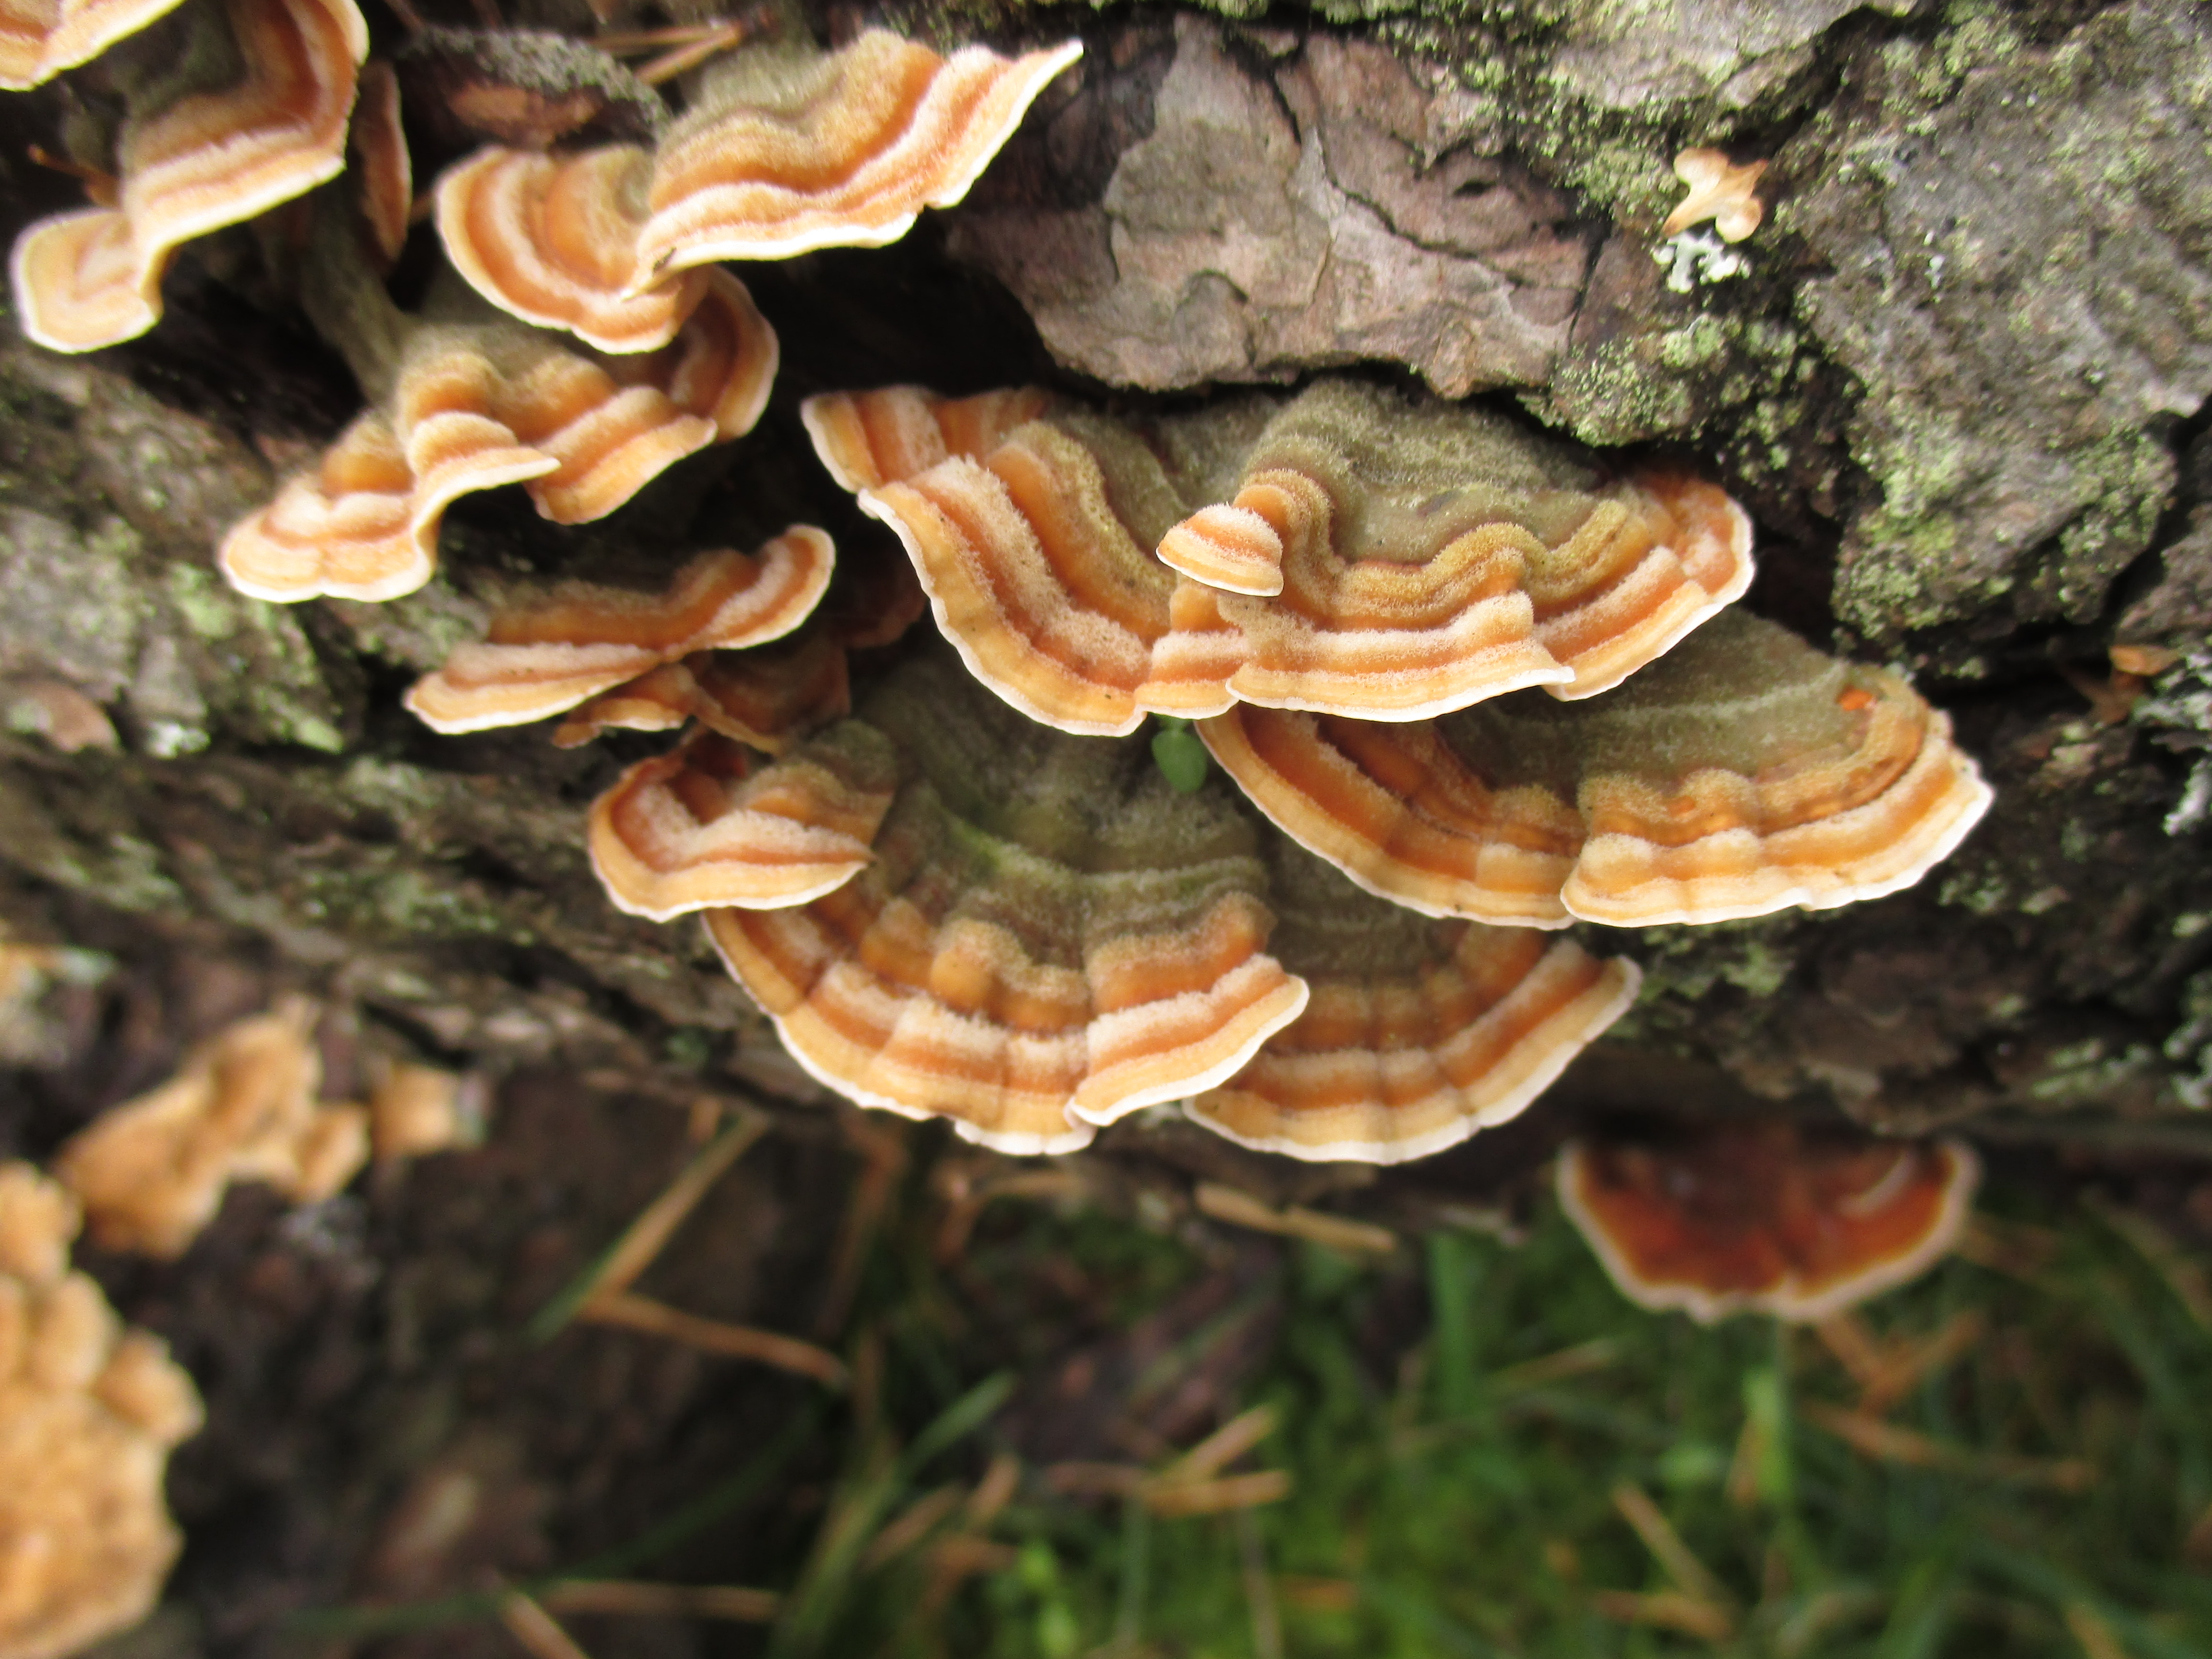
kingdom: Fungi
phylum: Basidiomycota
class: Agaricomycetes
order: Russulales
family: Stereaceae
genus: Stereum
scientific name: Stereum subtomentosum
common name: Yellowing curtain crust
